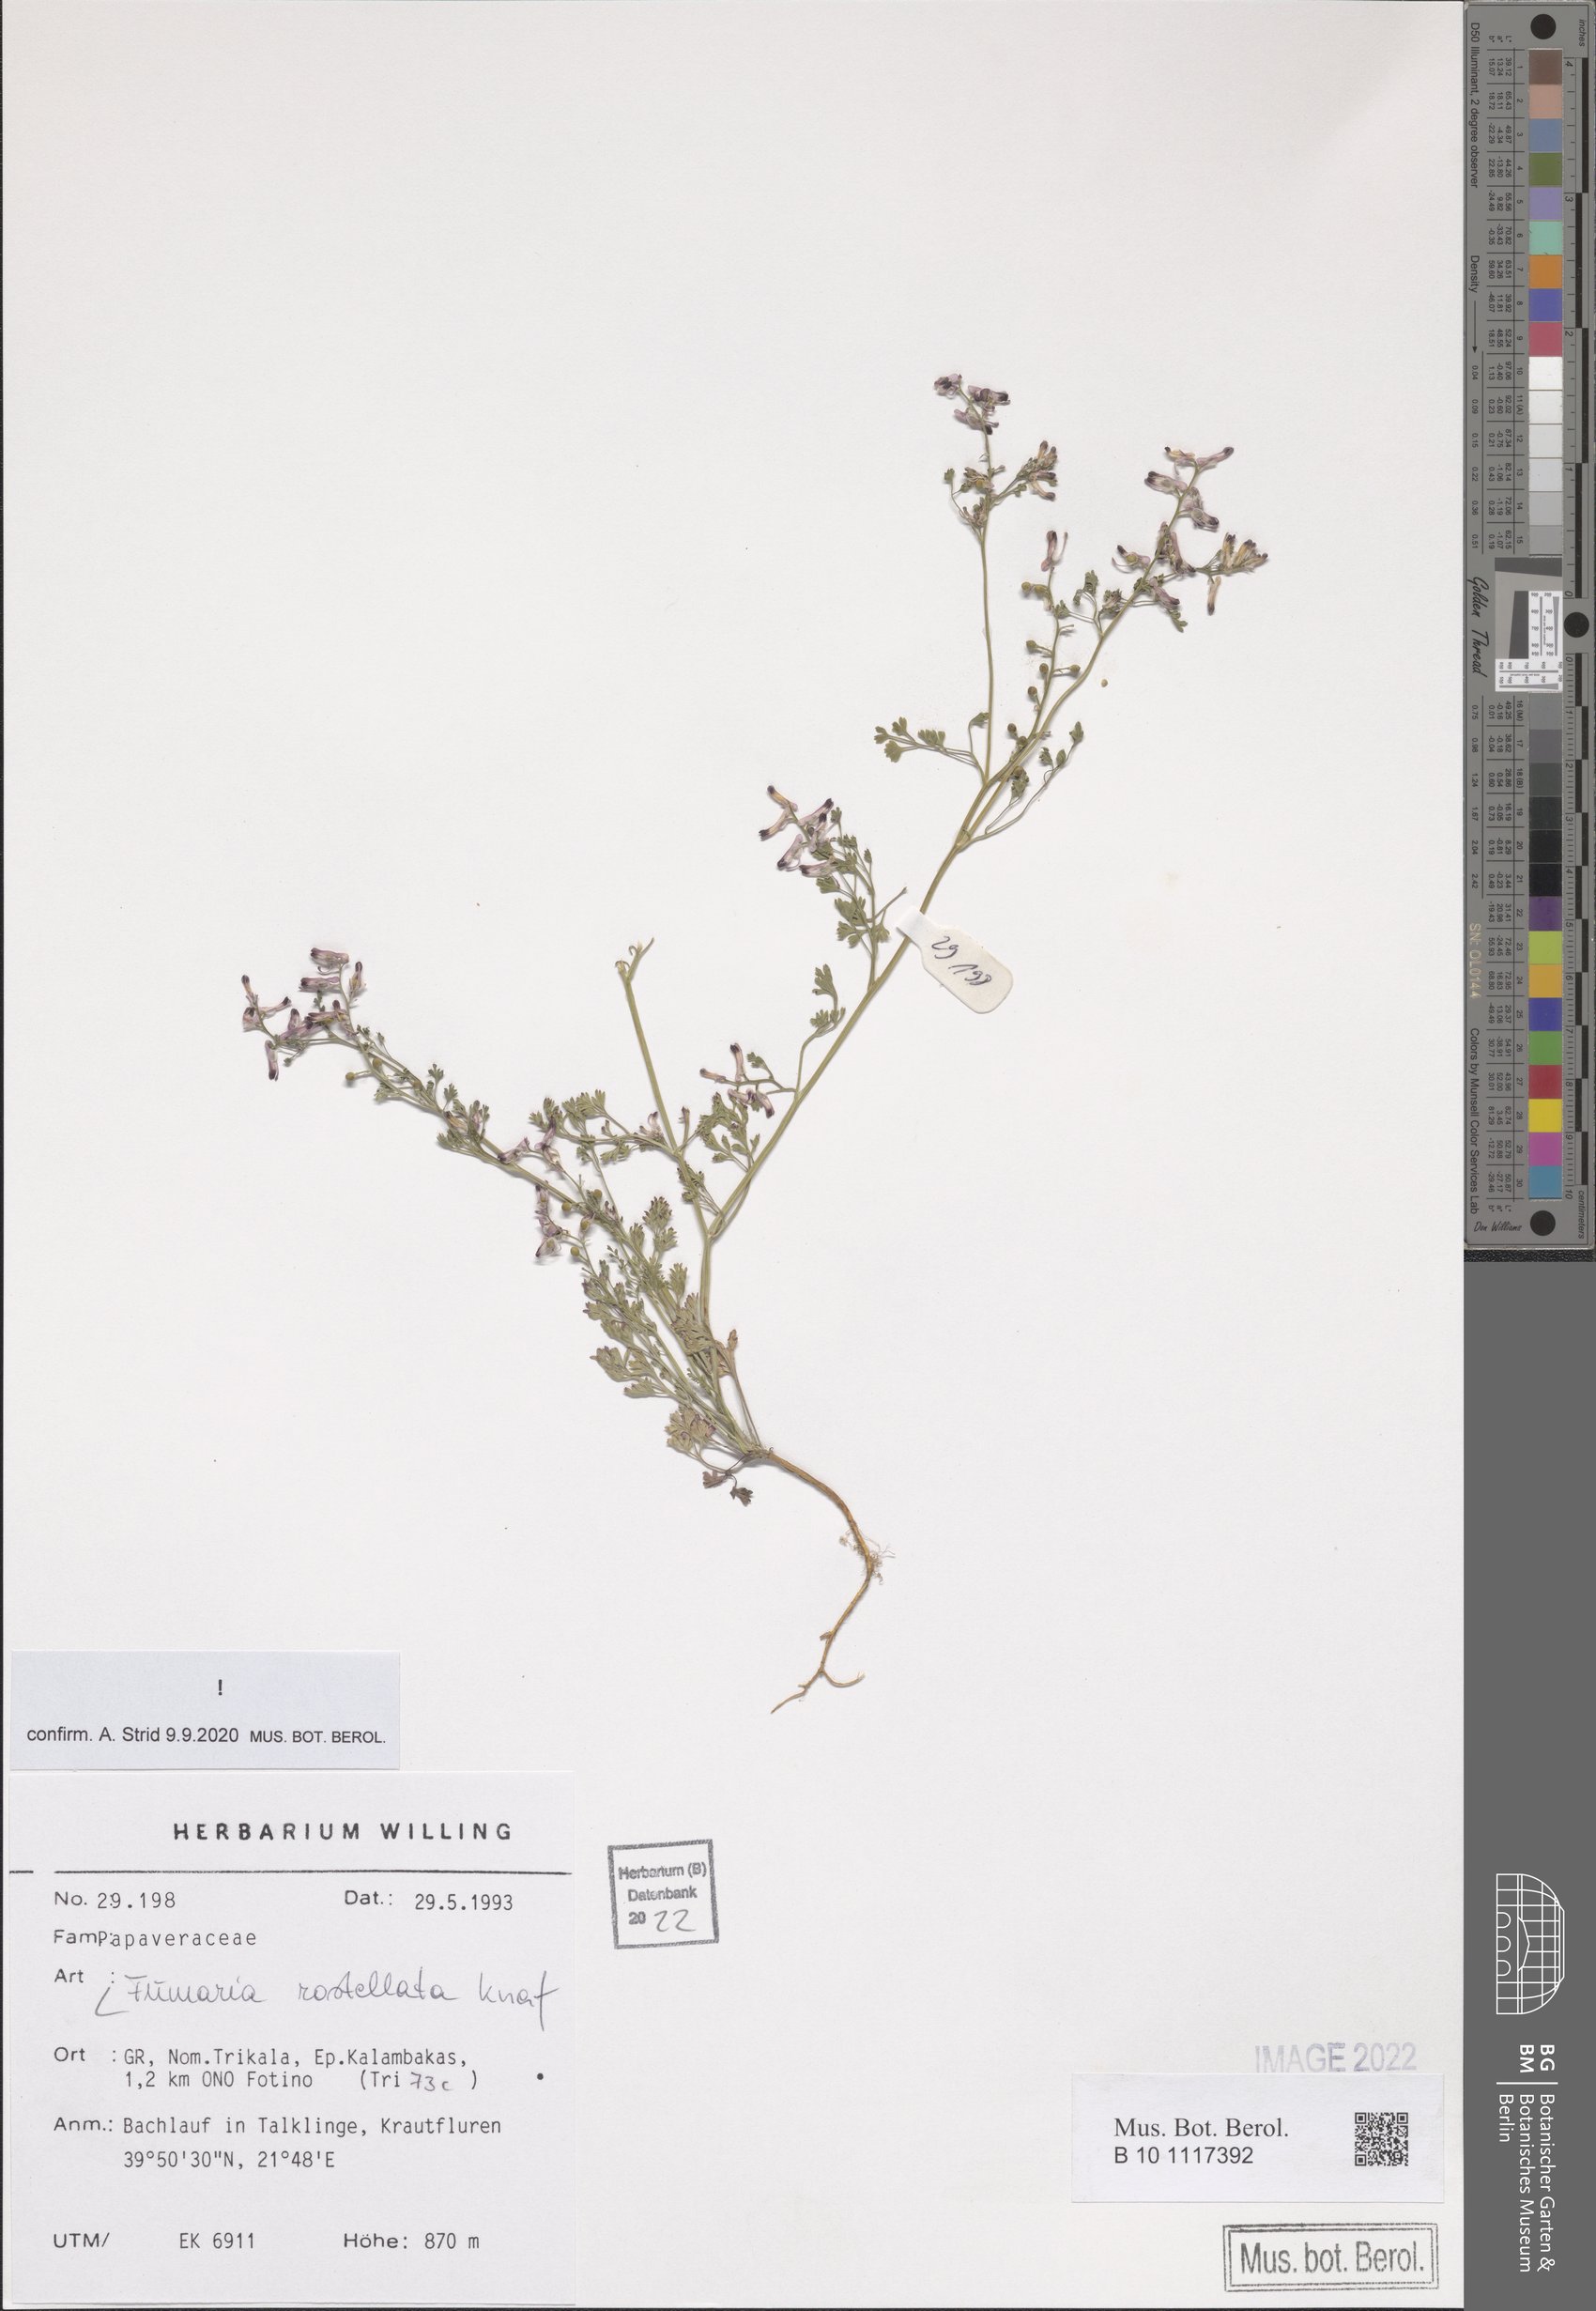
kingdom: Plantae
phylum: Tracheophyta
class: Magnoliopsida
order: Ranunculales
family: Papaveraceae
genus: Fumaria
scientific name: Fumaria rostellata
